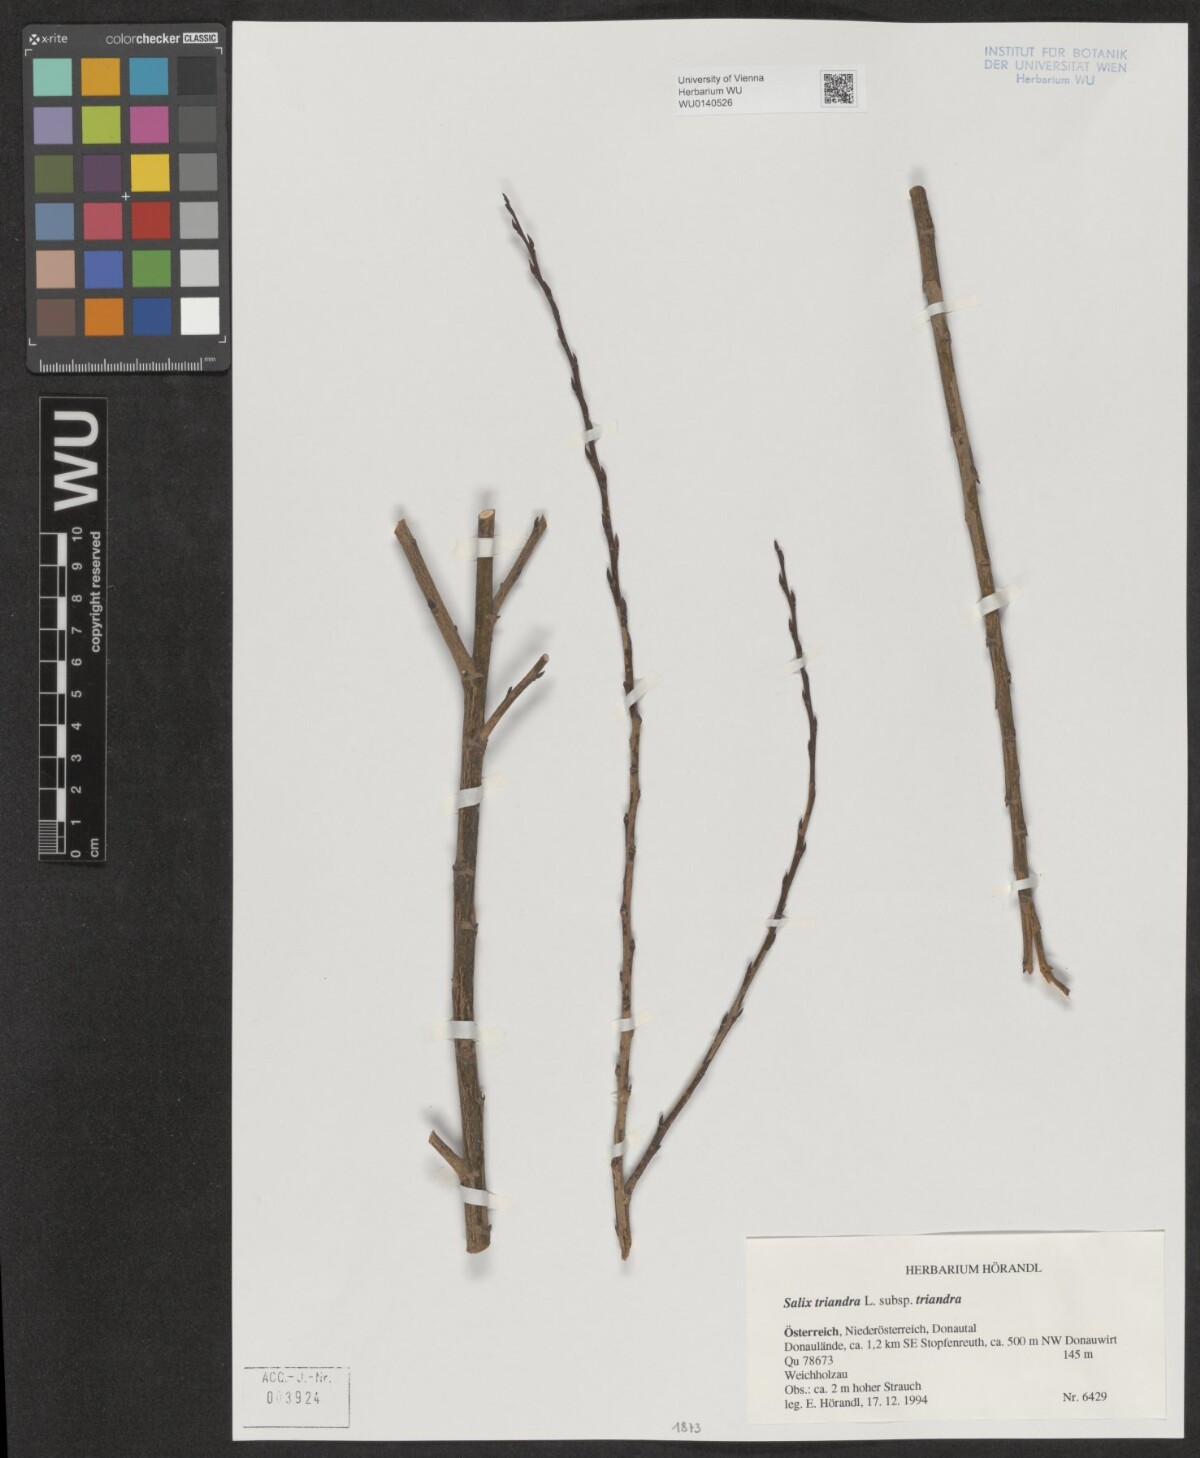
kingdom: Plantae
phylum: Tracheophyta
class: Magnoliopsida
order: Malpighiales
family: Salicaceae
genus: Salix
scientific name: Salix triandra
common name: Almond willow
